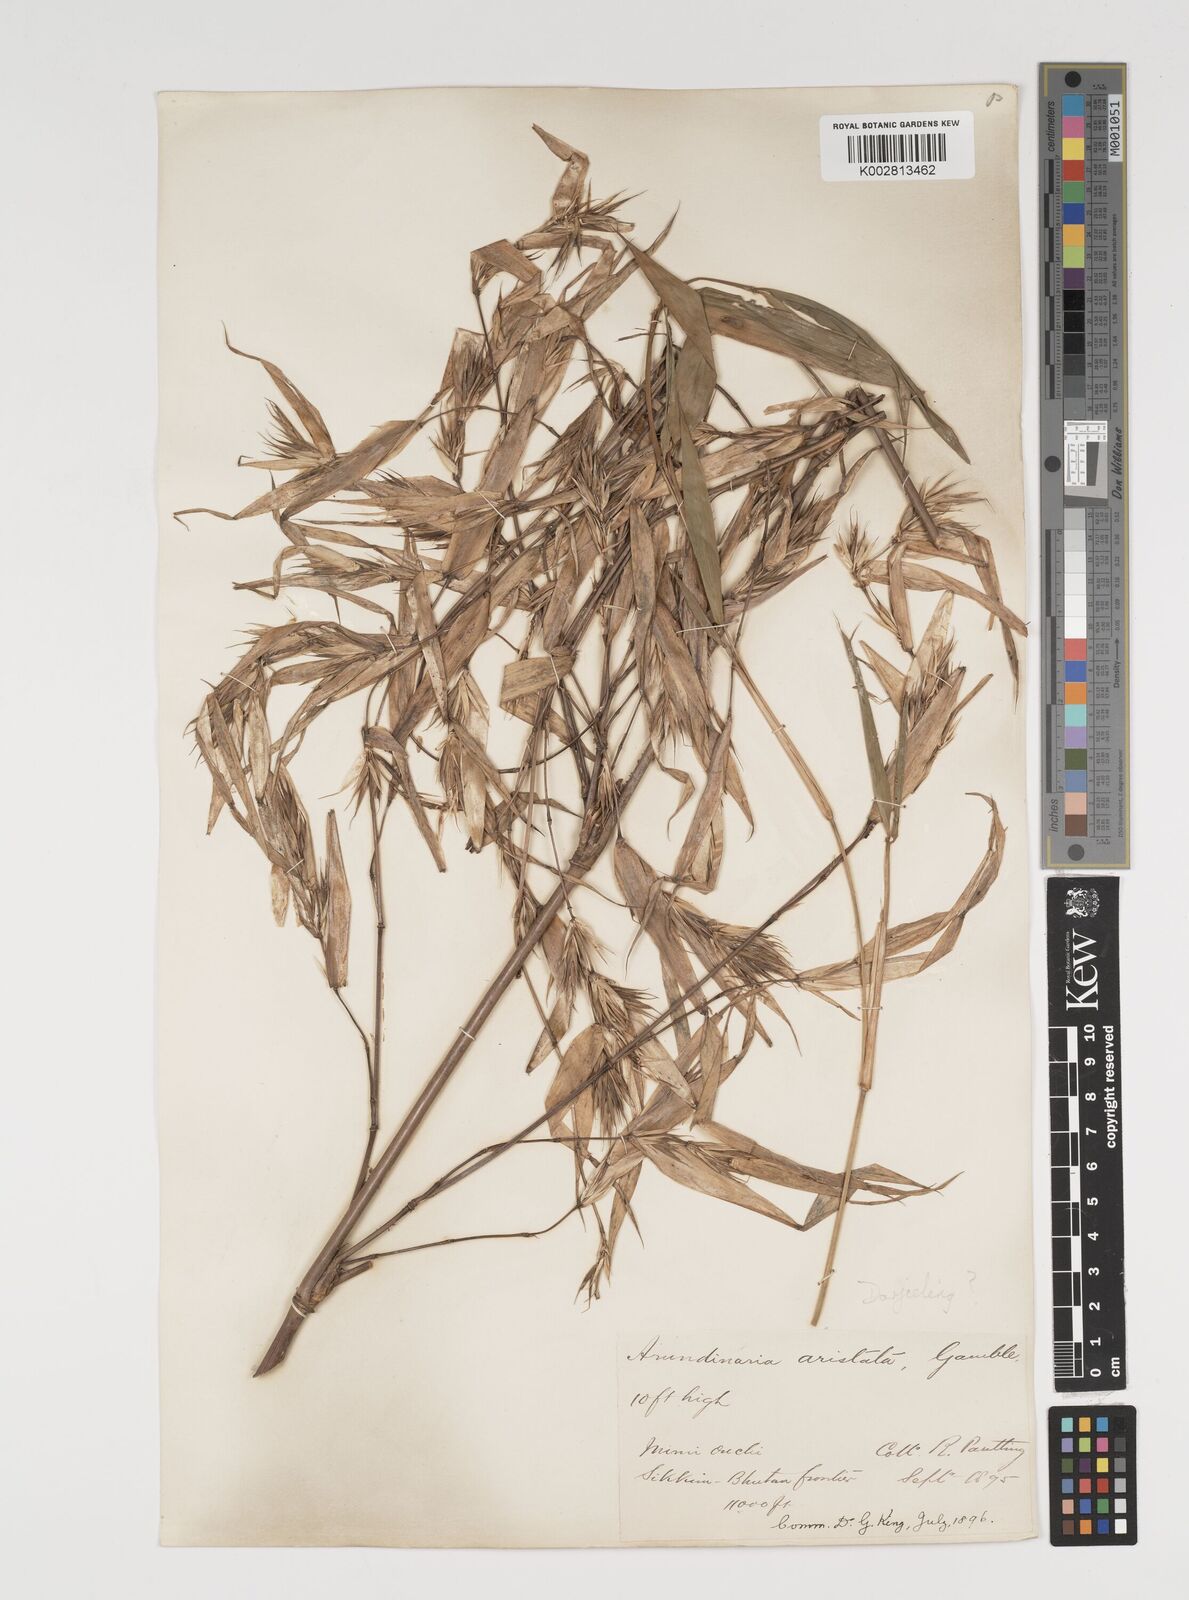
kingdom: Plantae
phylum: Tracheophyta
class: Liliopsida
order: Poales
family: Poaceae
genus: Thamnocalamus
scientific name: Thamnocalamus spathiflorus
